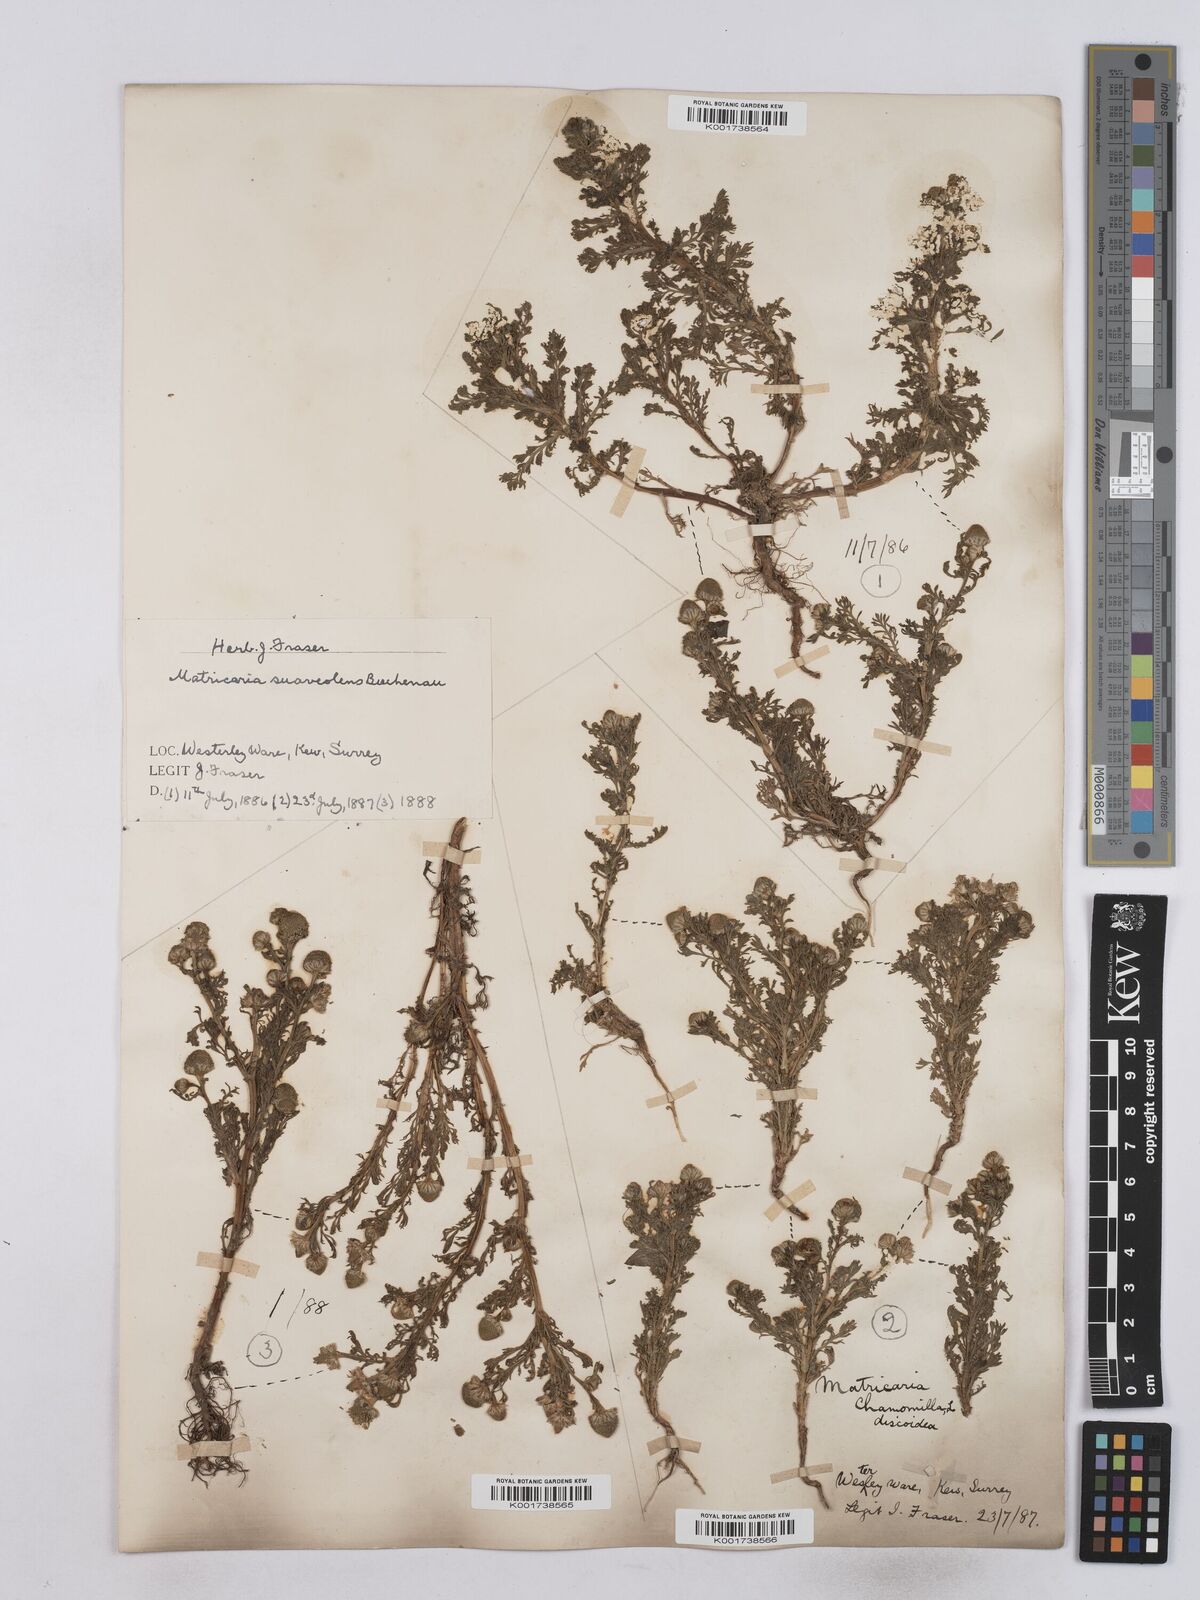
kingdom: Plantae
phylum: Tracheophyta
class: Magnoliopsida
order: Asterales
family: Asteraceae
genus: Matricaria
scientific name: Matricaria discoidea
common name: Disc mayweed
